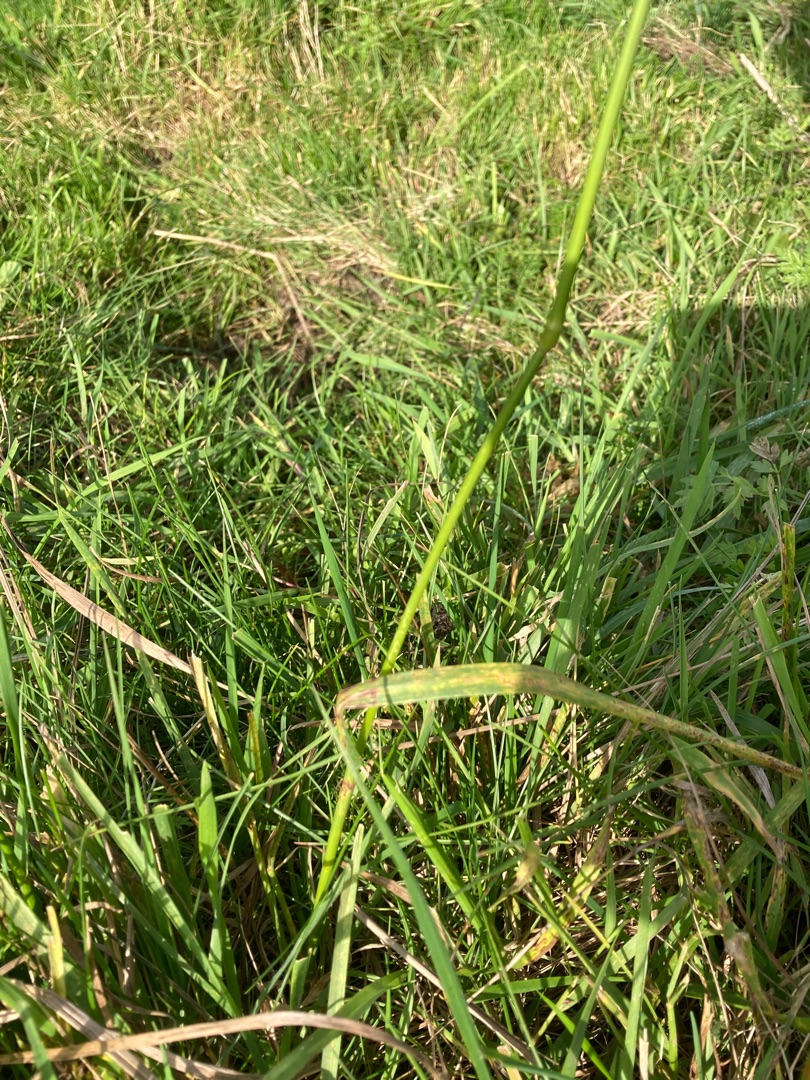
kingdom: Plantae
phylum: Tracheophyta
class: Liliopsida
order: Poales
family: Poaceae
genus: Alopecurus
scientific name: Alopecurus pratensis
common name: Eng-rævehale
